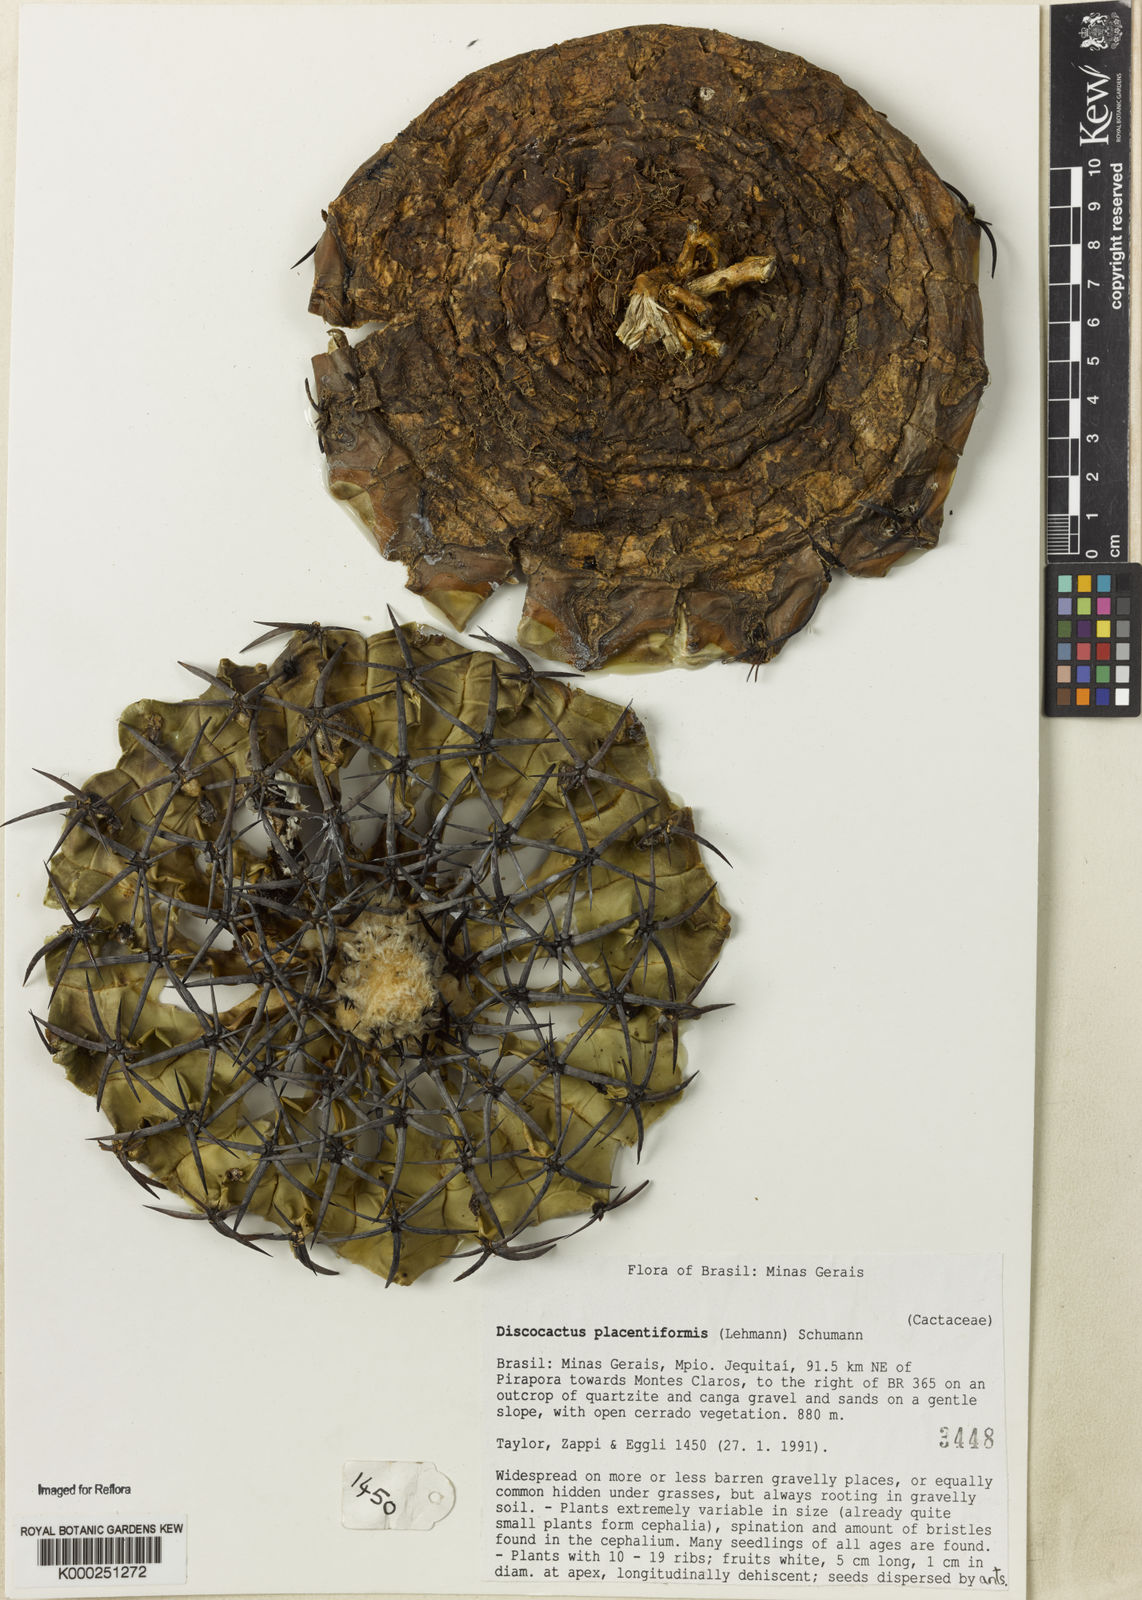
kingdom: Plantae
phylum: Tracheophyta
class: Magnoliopsida
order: Caryophyllales
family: Cactaceae
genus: Discocactus
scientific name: Discocactus placentiformis
